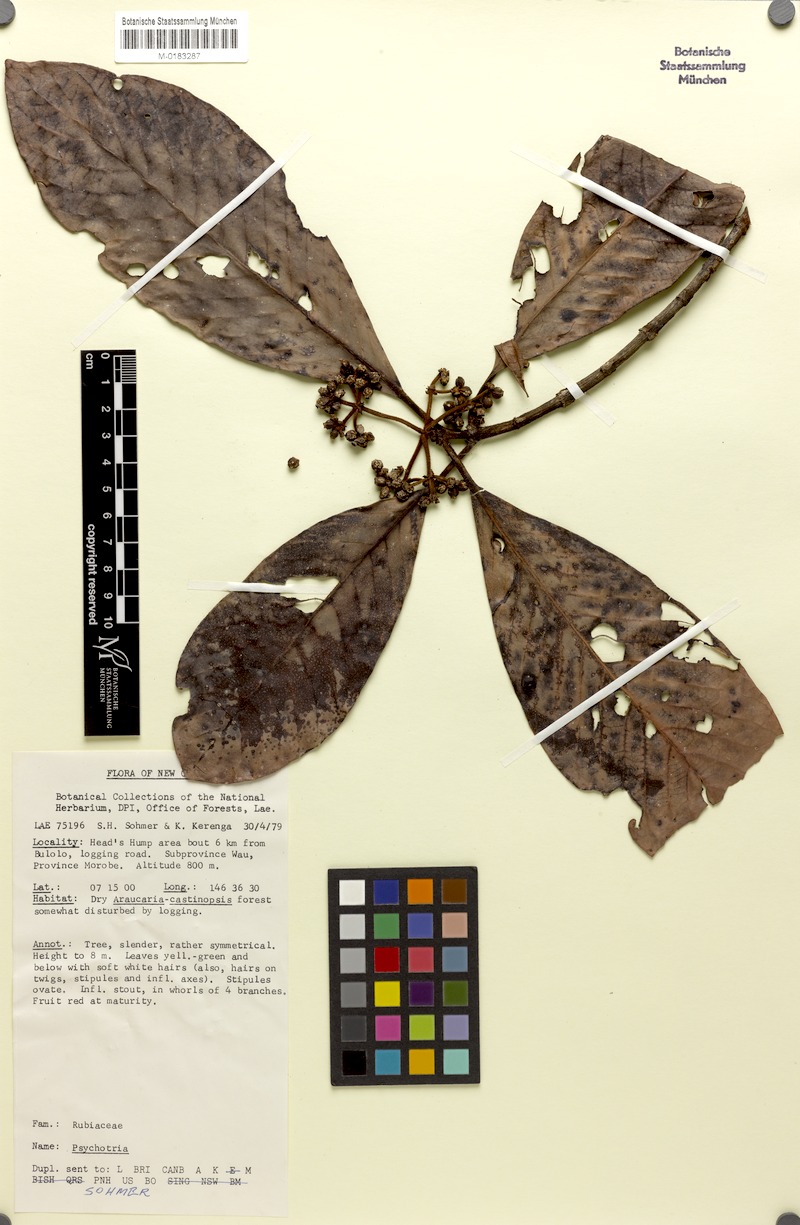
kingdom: Plantae
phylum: Tracheophyta
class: Magnoliopsida
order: Gentianales
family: Rubiaceae
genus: Psychotria
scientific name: Psychotria hentyi
